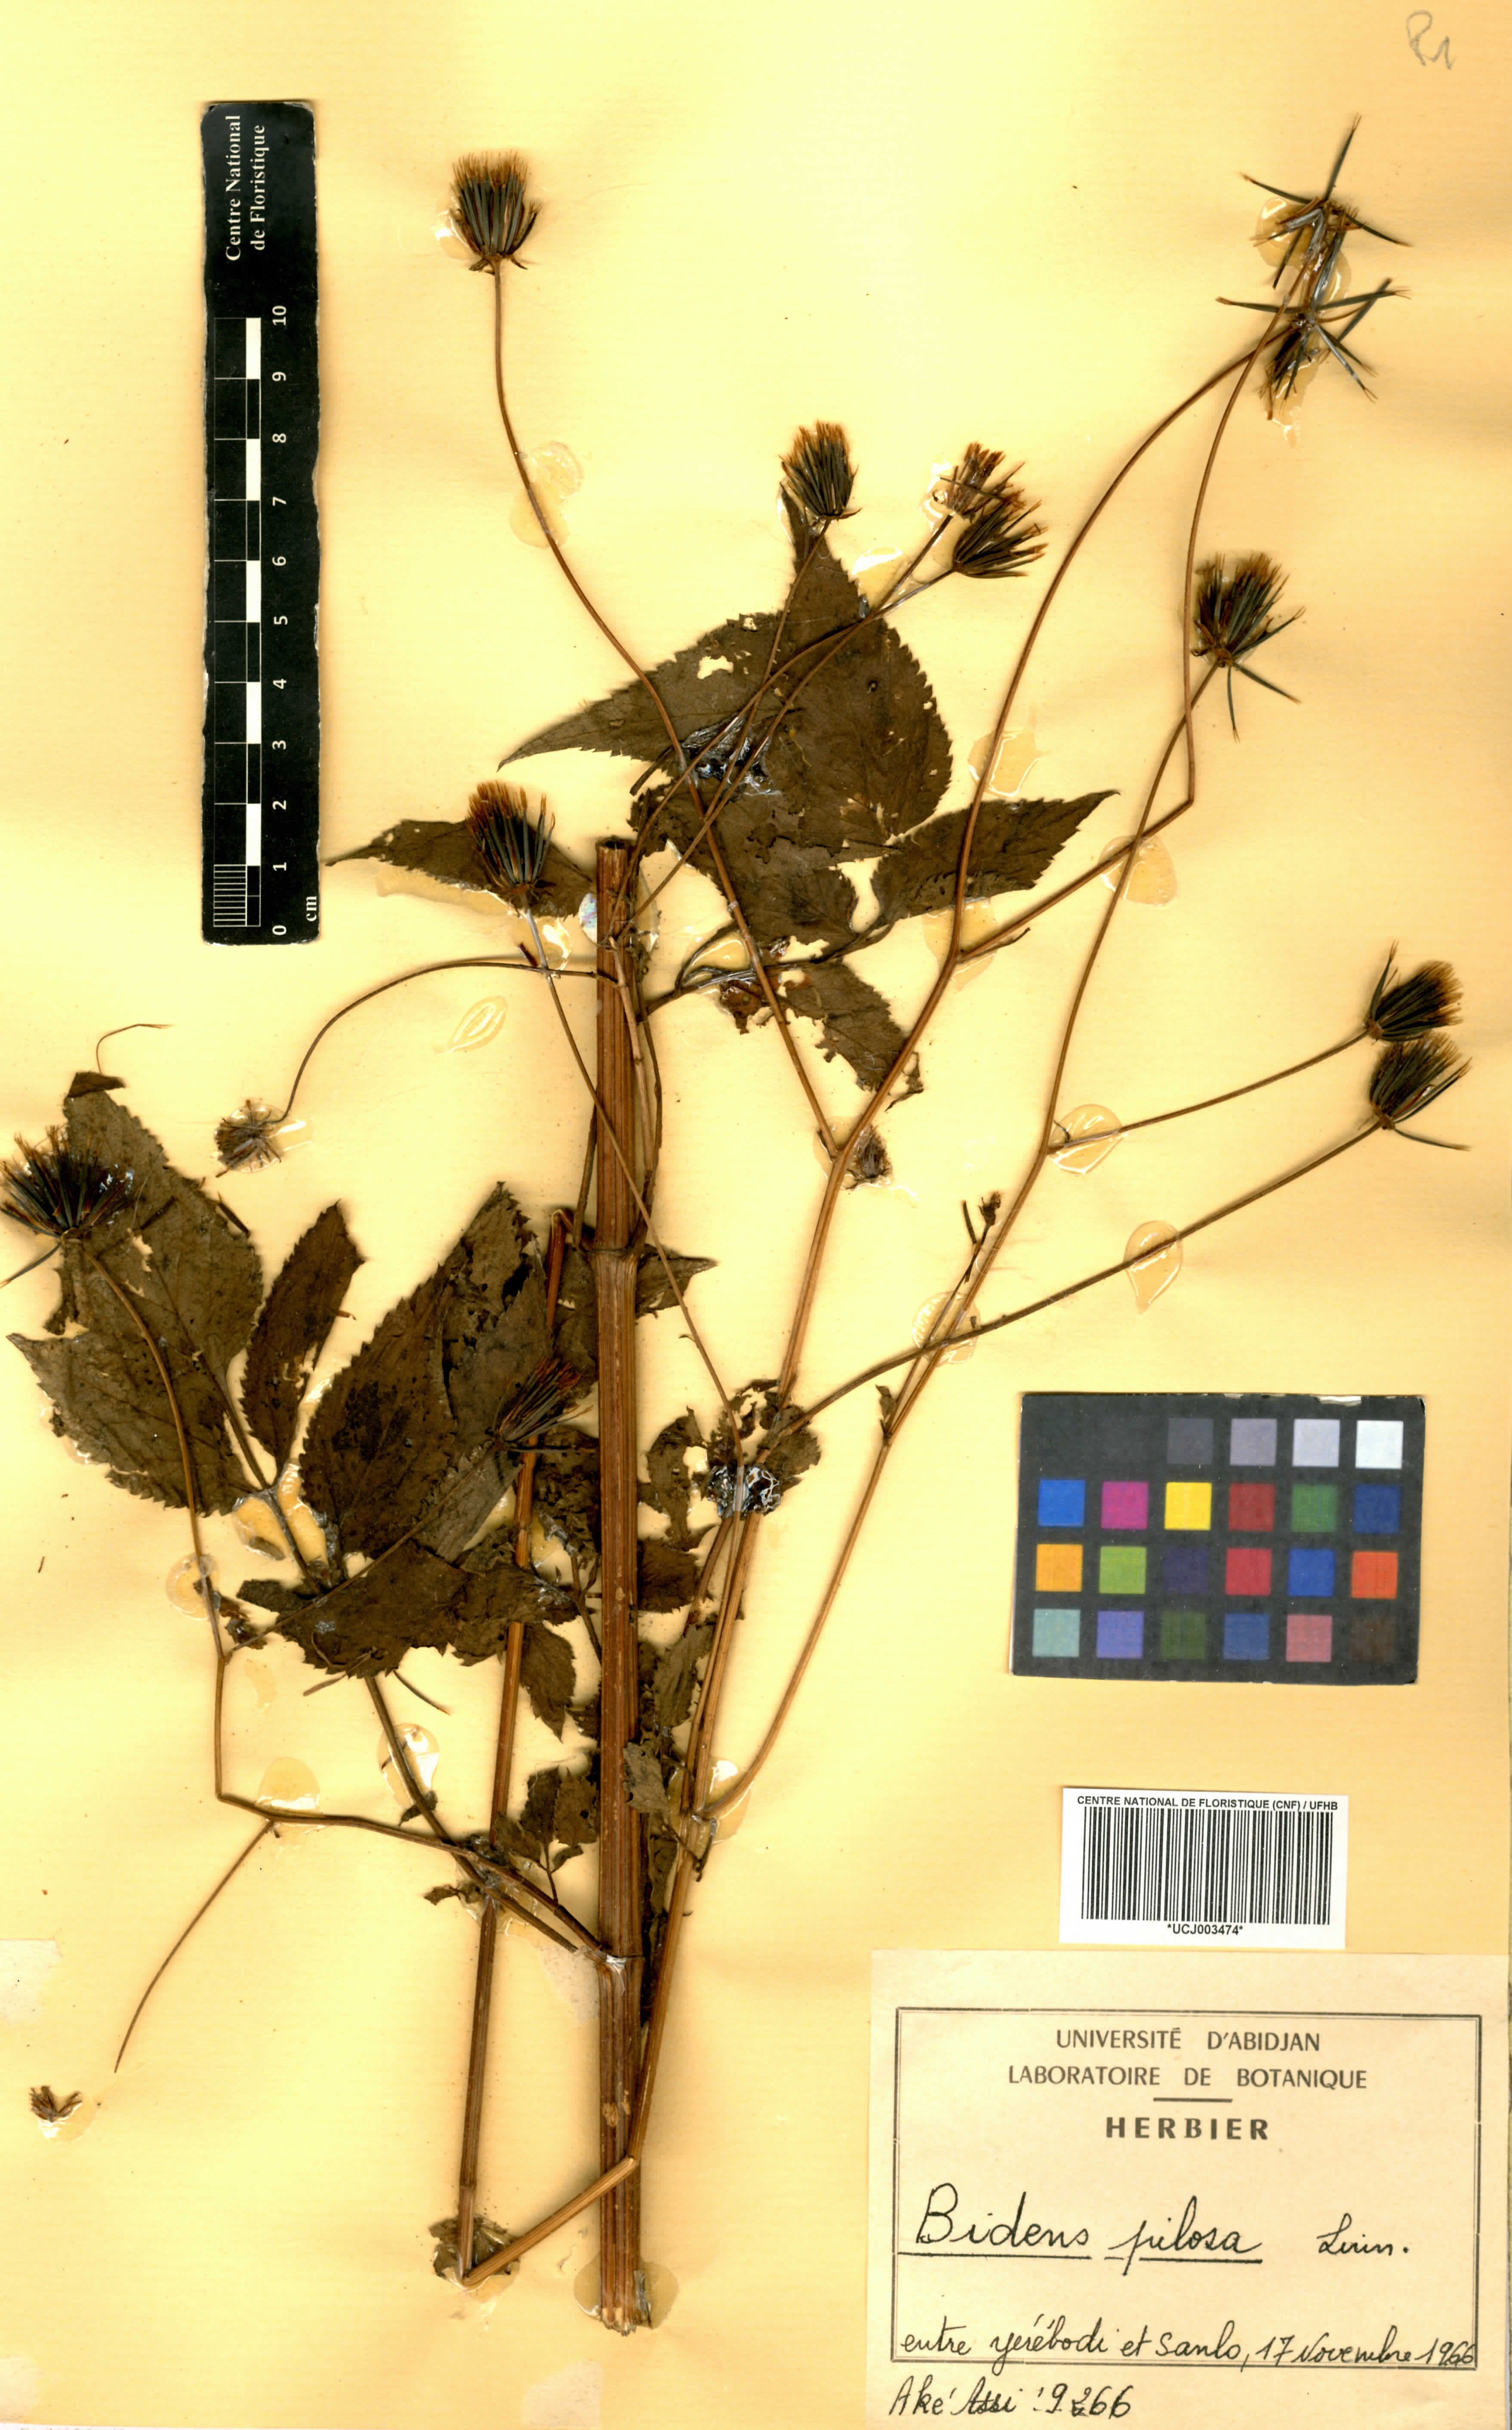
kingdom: Plantae
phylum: Tracheophyta
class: Magnoliopsida
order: Asterales
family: Asteraceae
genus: Bidens
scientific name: Bidens pilosa
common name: Black-jack
